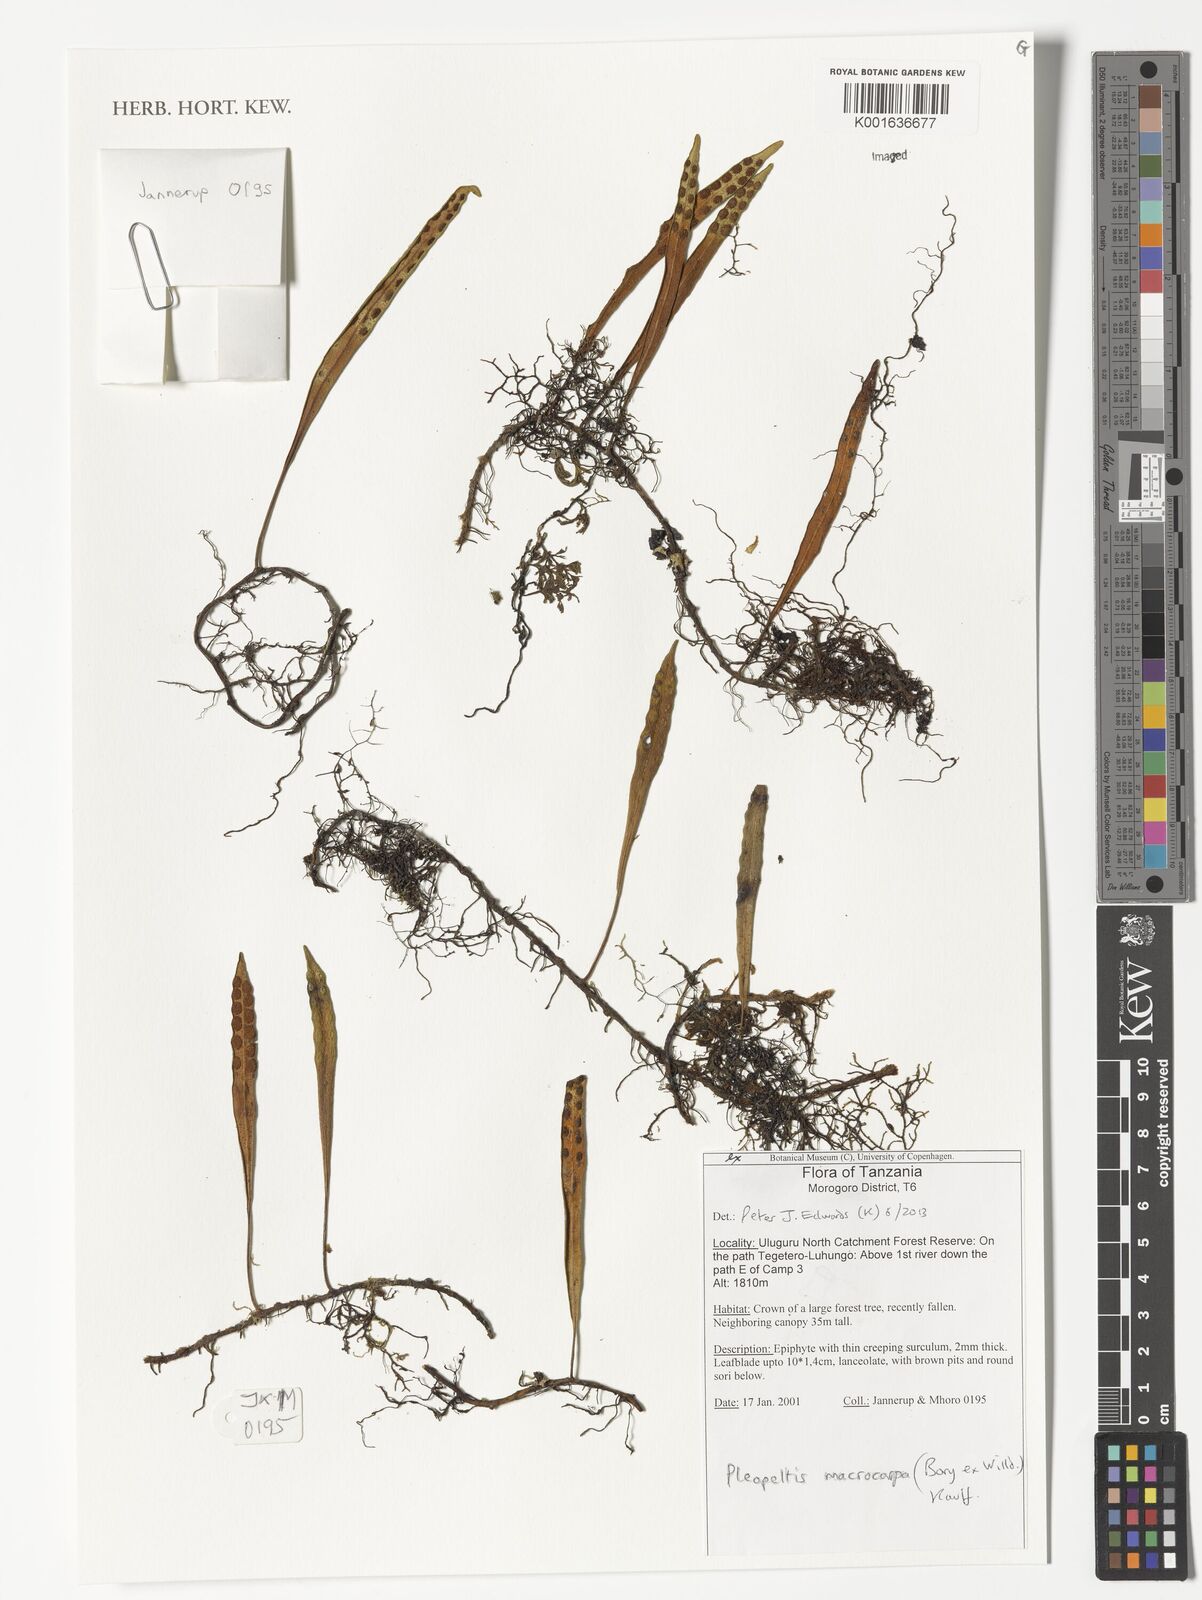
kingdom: Plantae
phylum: Tracheophyta
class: Polypodiopsida
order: Polypodiales
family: Polypodiaceae
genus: Pleopeltis
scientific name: Pleopeltis macrocarpa
